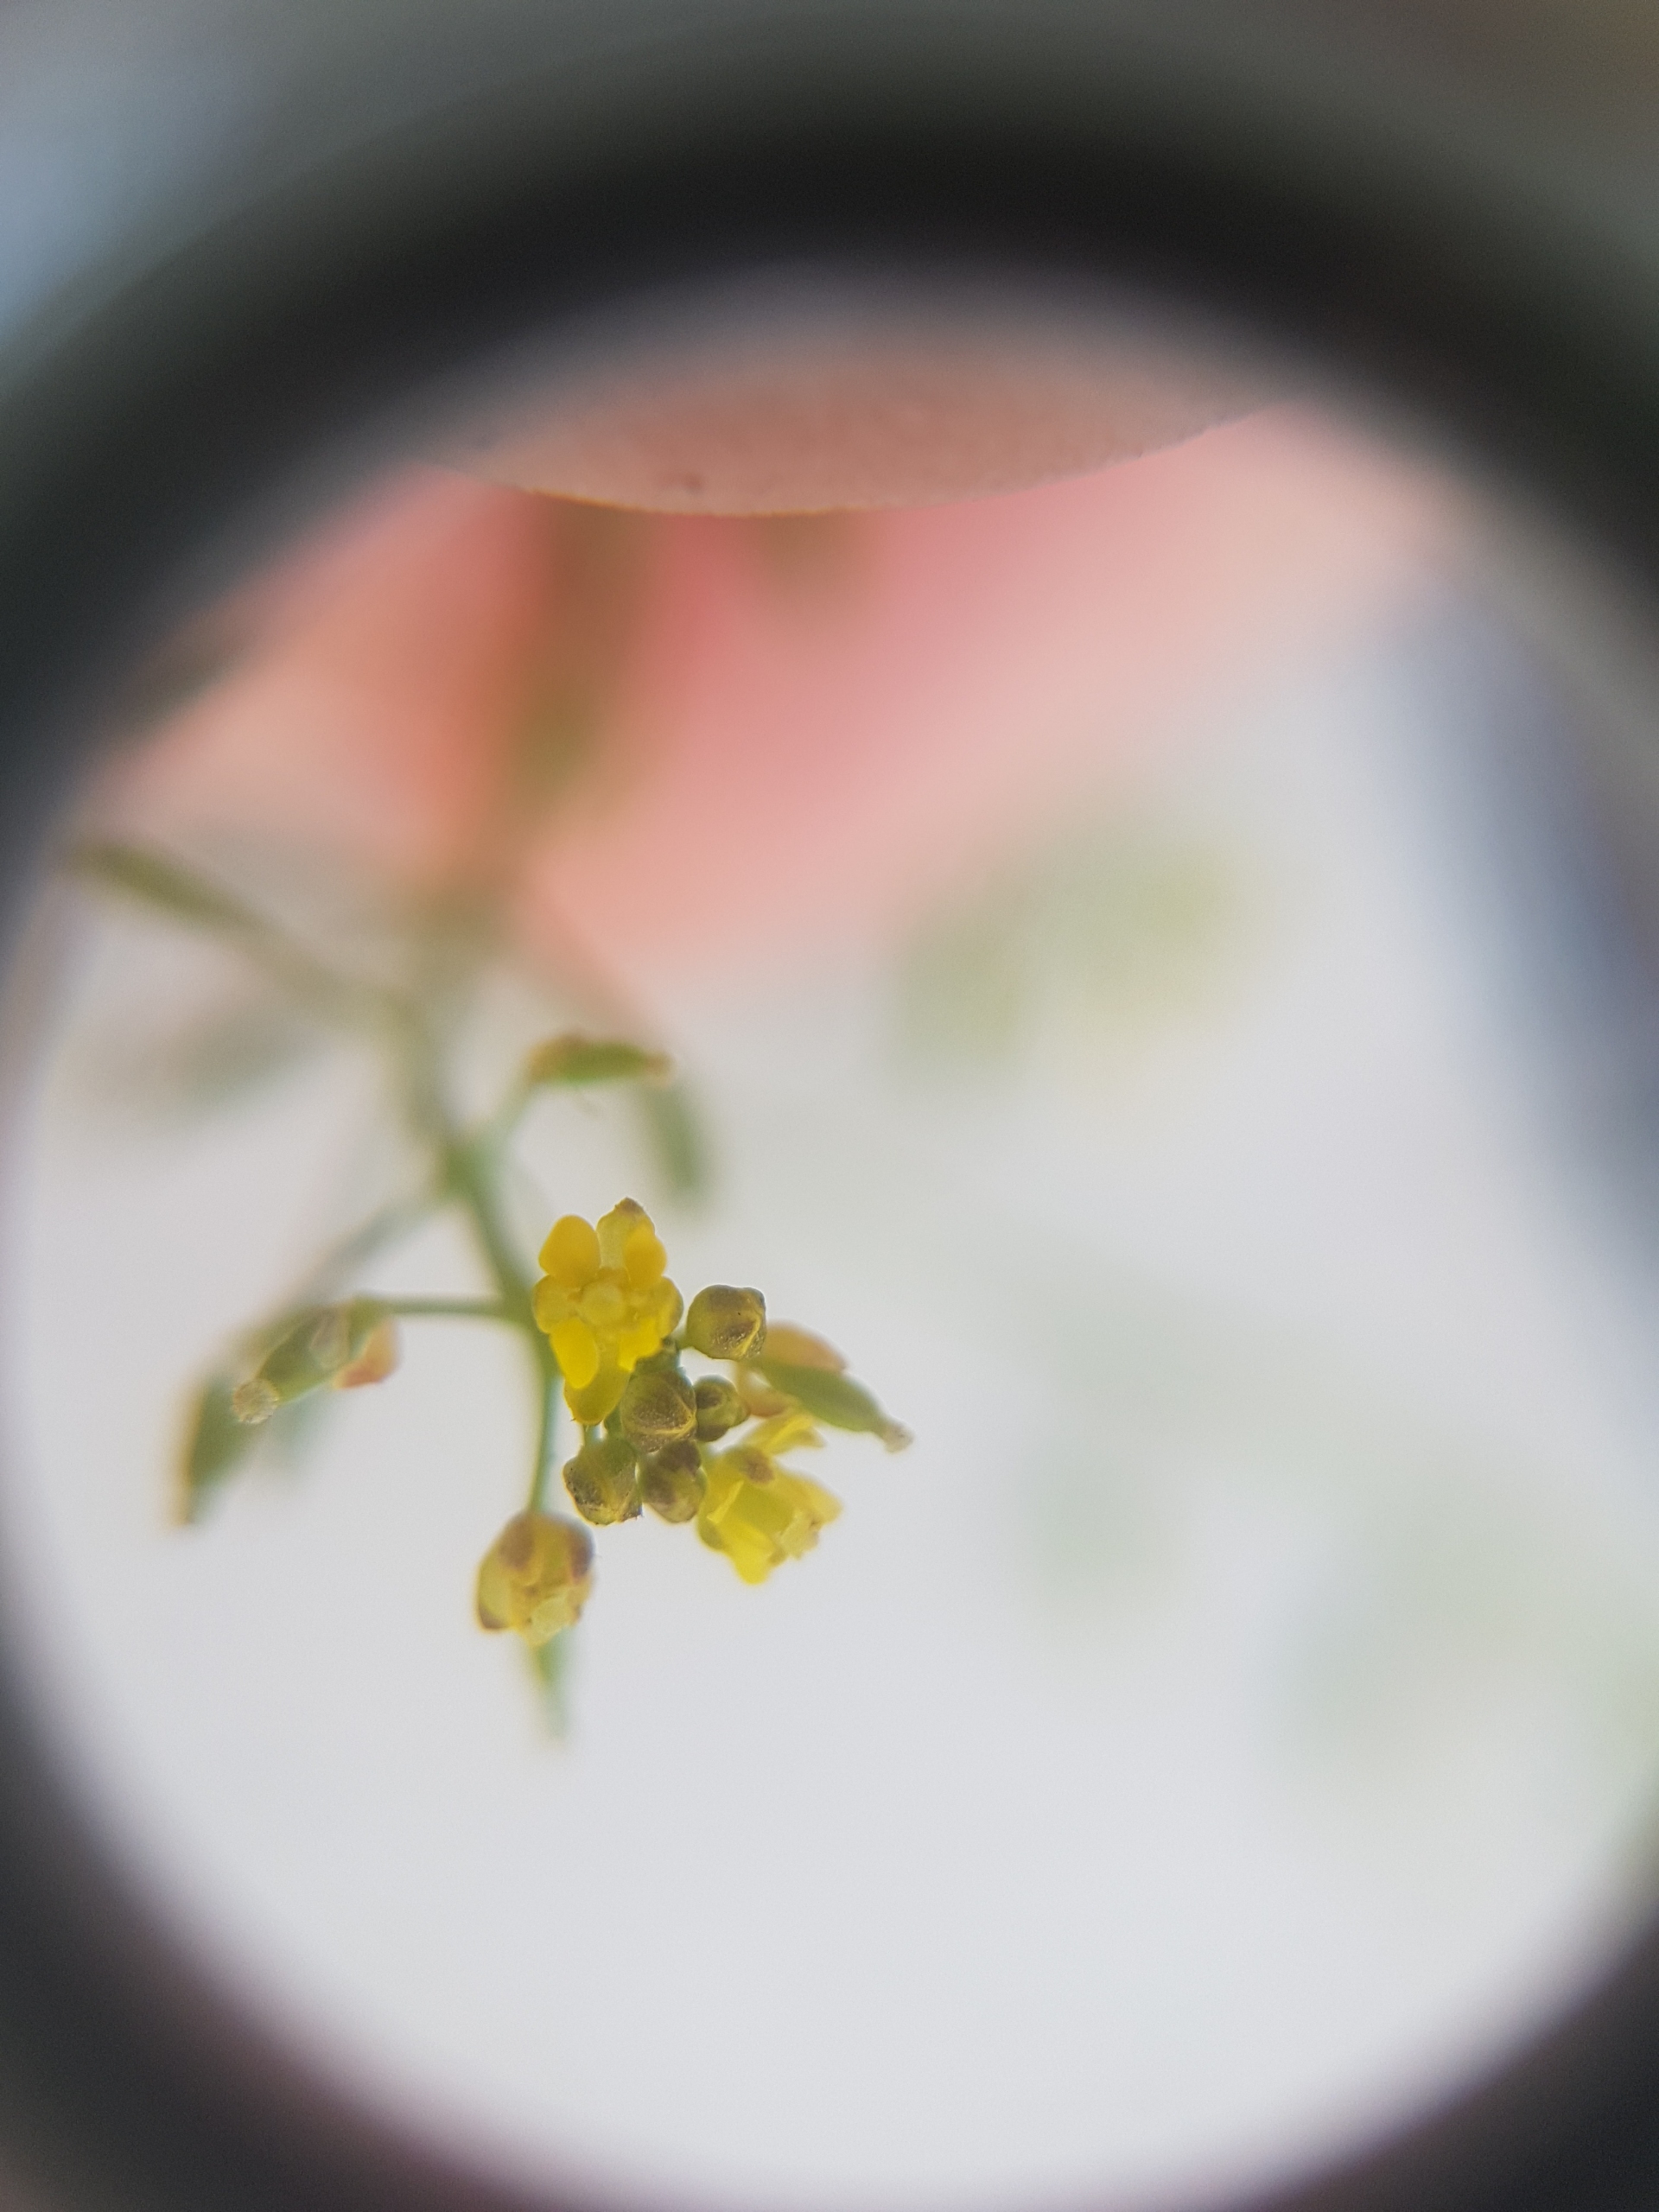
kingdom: Plantae
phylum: Tracheophyta
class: Magnoliopsida
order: Brassicales
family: Brassicaceae
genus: Rorippa
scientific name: Rorippa palustris
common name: Kær-guldkarse
